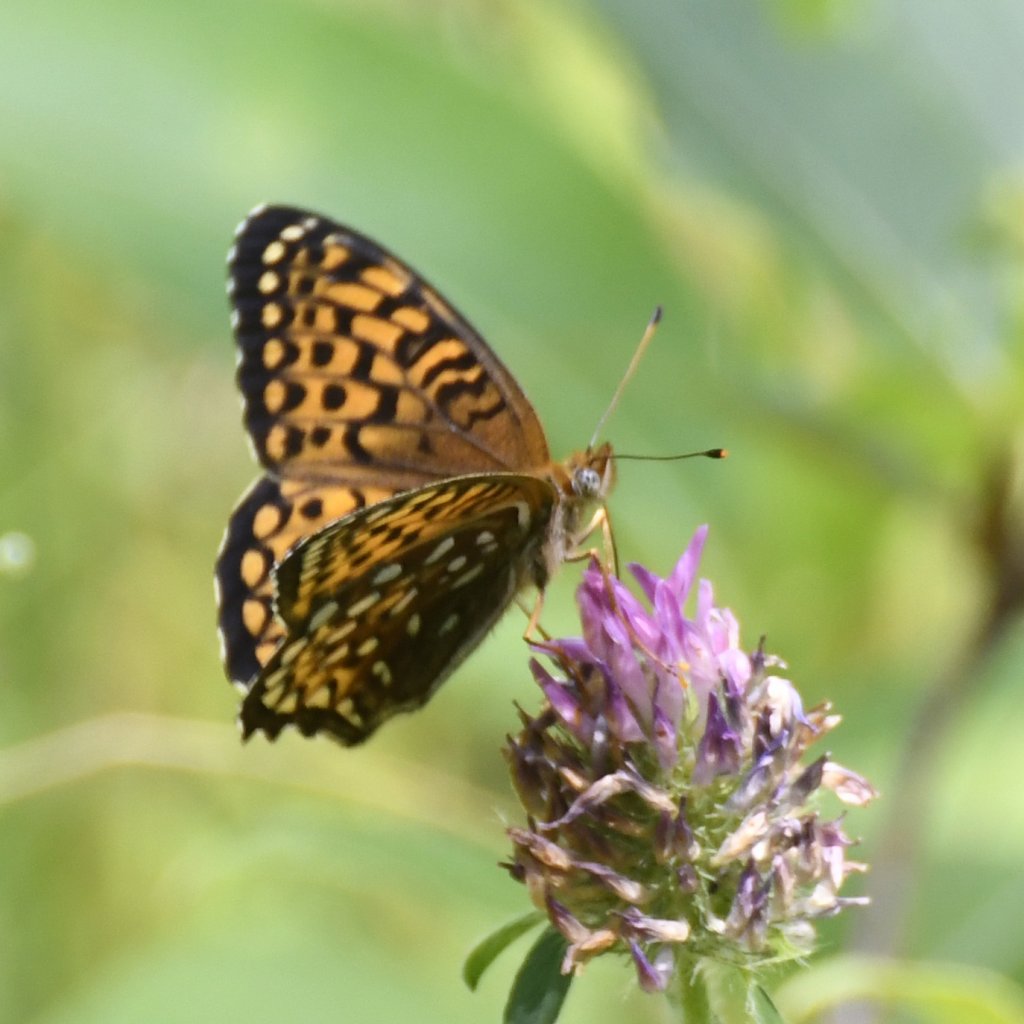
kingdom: Animalia
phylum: Arthropoda
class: Insecta
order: Lepidoptera
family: Nymphalidae
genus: Speyeria
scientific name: Speyeria atlantis
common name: Atlantis Fritillary
